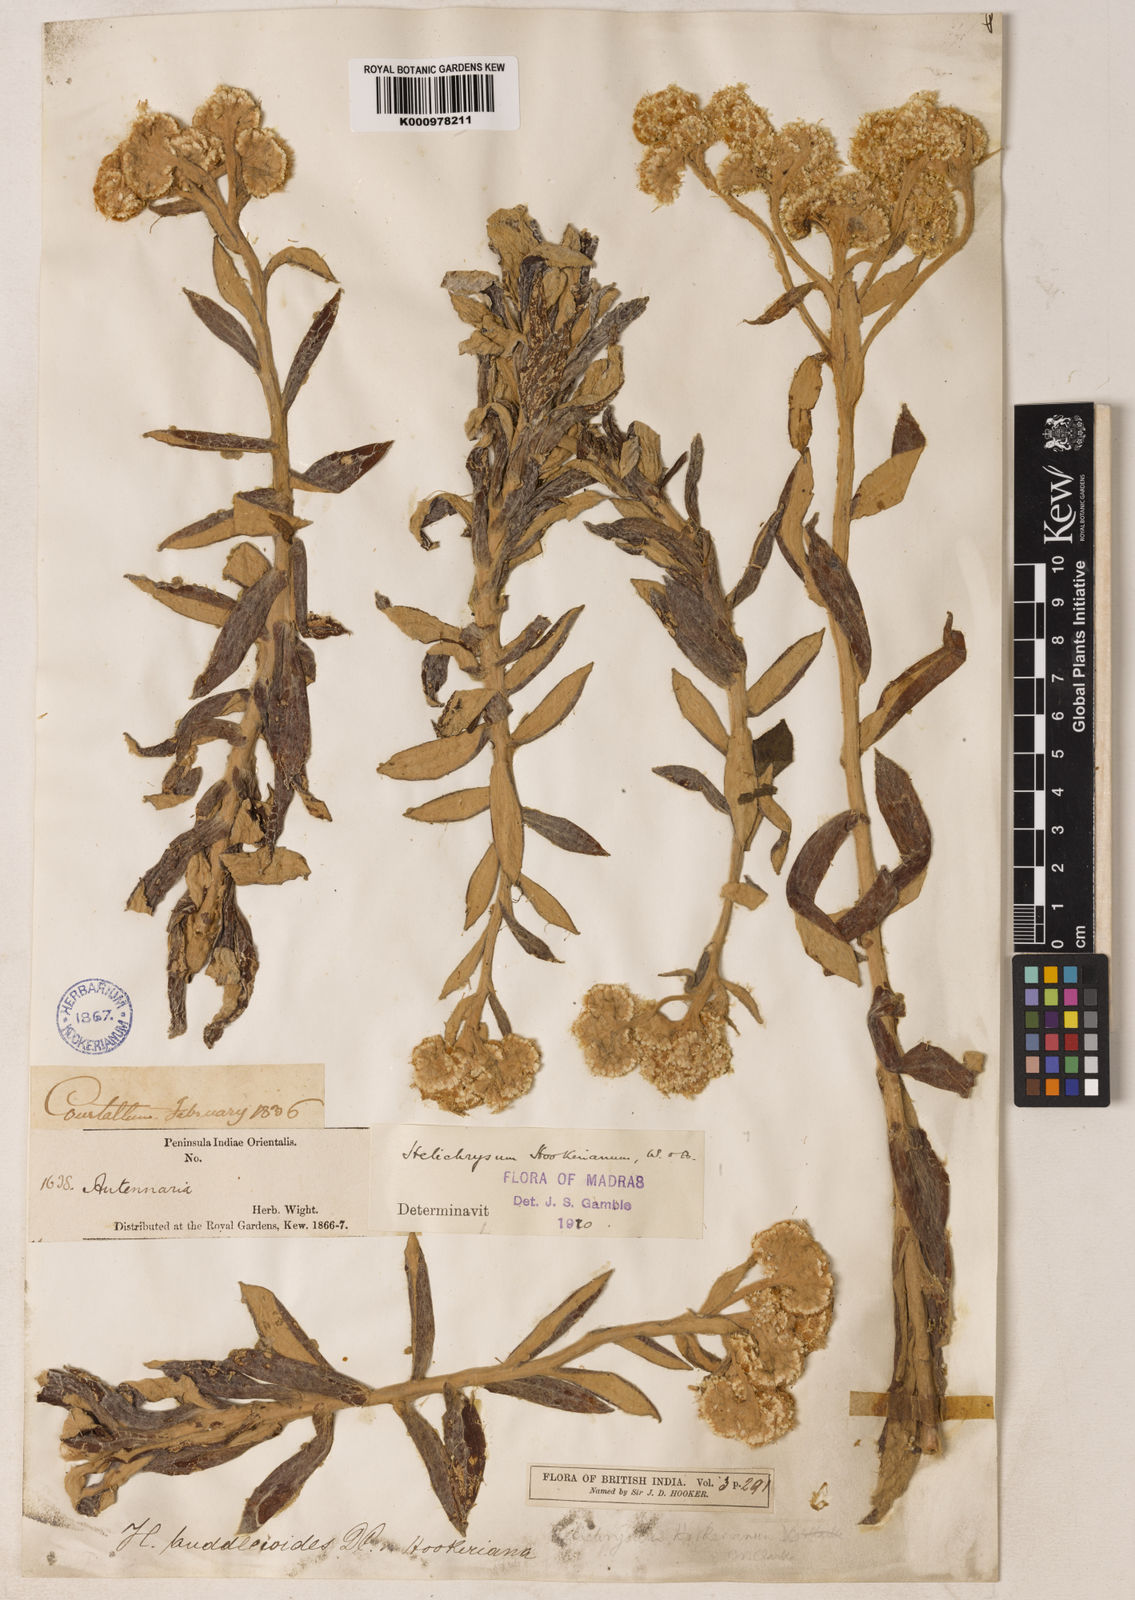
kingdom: Plantae
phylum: Tracheophyta
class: Magnoliopsida
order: Asterales
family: Asteraceae
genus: Helichrysum
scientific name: Helichrysum
